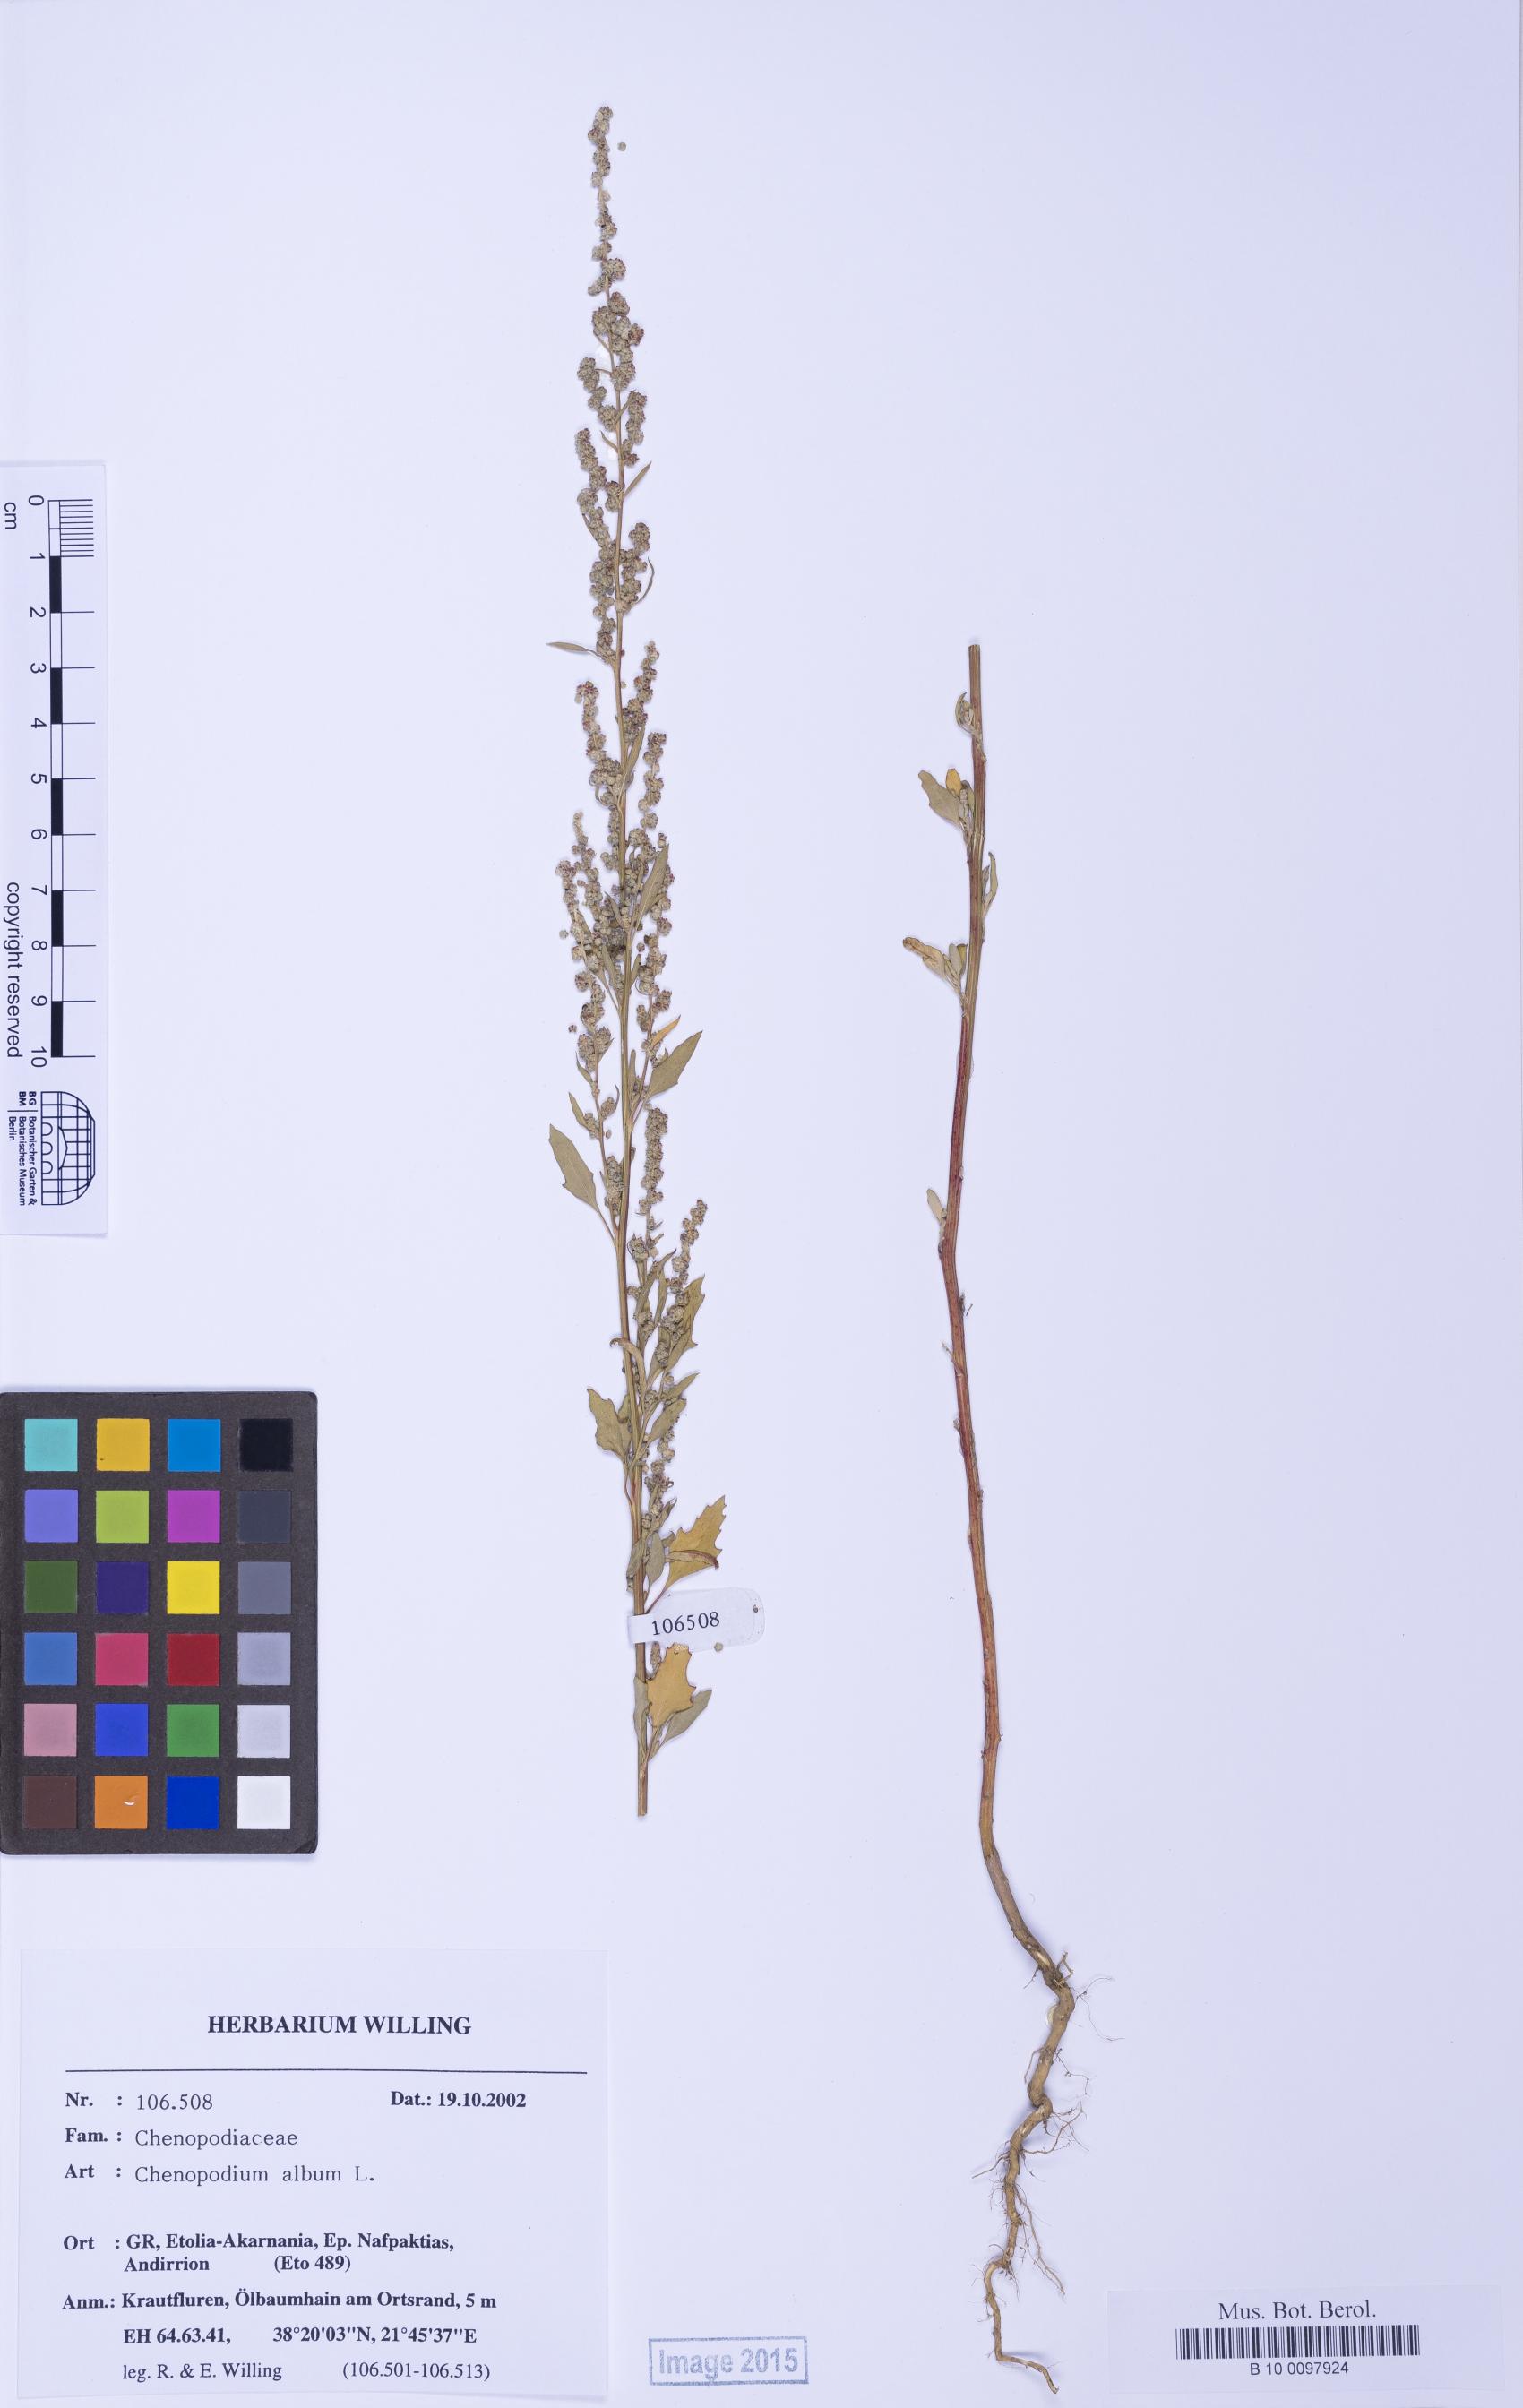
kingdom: Plantae
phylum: Tracheophyta
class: Magnoliopsida
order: Caryophyllales
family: Amaranthaceae
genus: Chenopodium
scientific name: Chenopodium betaceum
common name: Striped goosefoot
